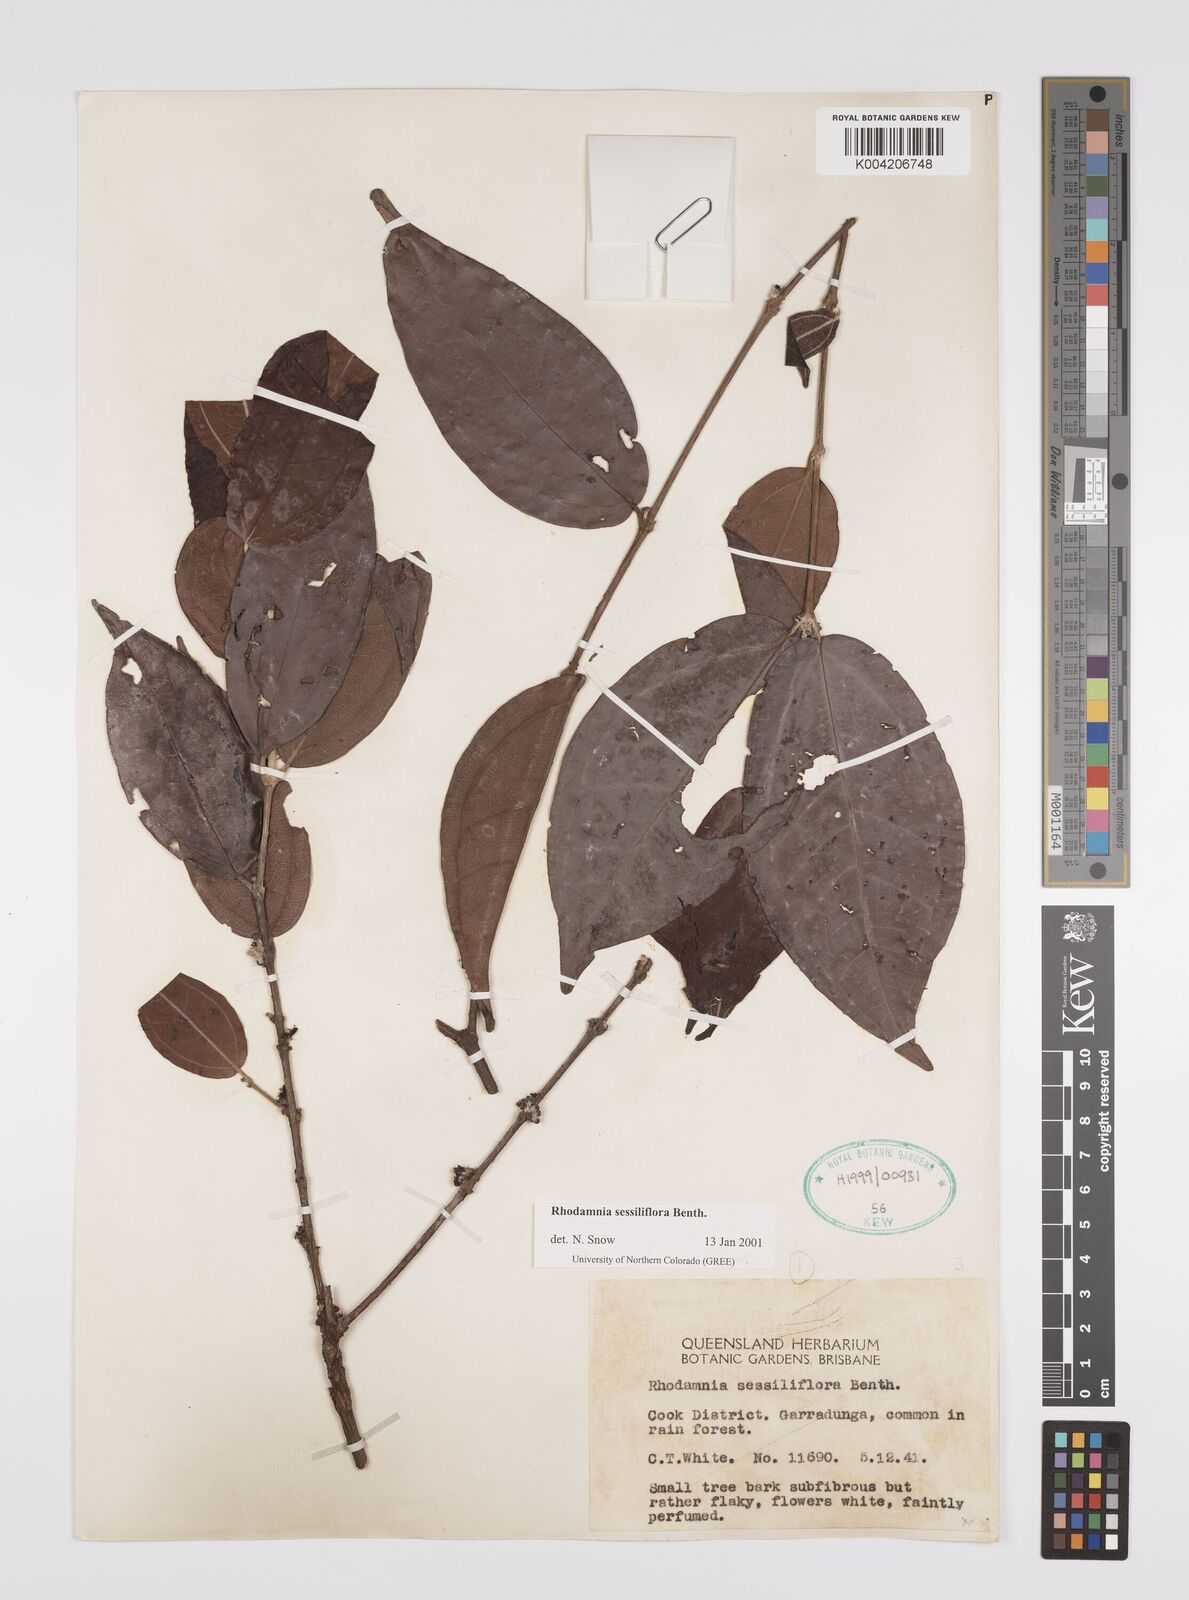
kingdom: Plantae
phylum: Tracheophyta
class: Magnoliopsida
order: Myrtales
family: Myrtaceae
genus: Rhodamnia
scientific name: Rhodamnia sessiliflora
